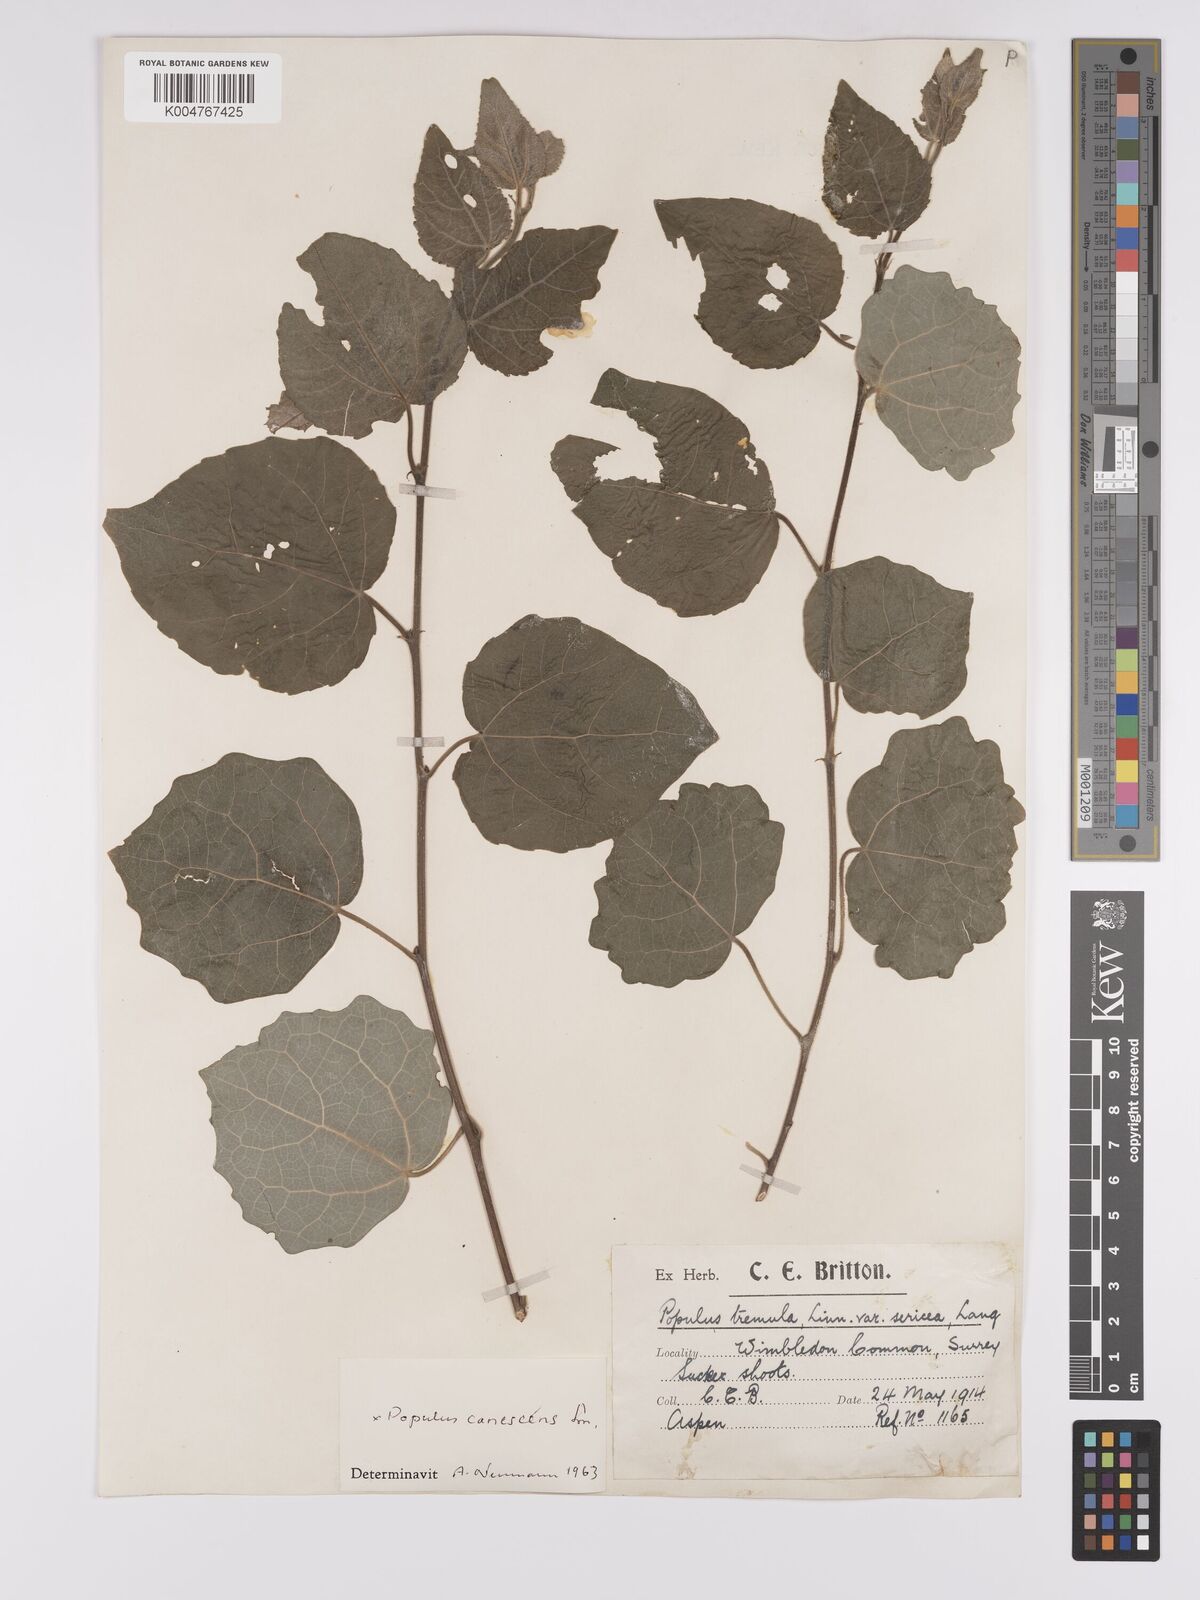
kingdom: Plantae
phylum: Tracheophyta
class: Magnoliopsida
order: Malpighiales
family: Salicaceae
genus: Populus
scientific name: Populus canescens
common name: Gray poplar
